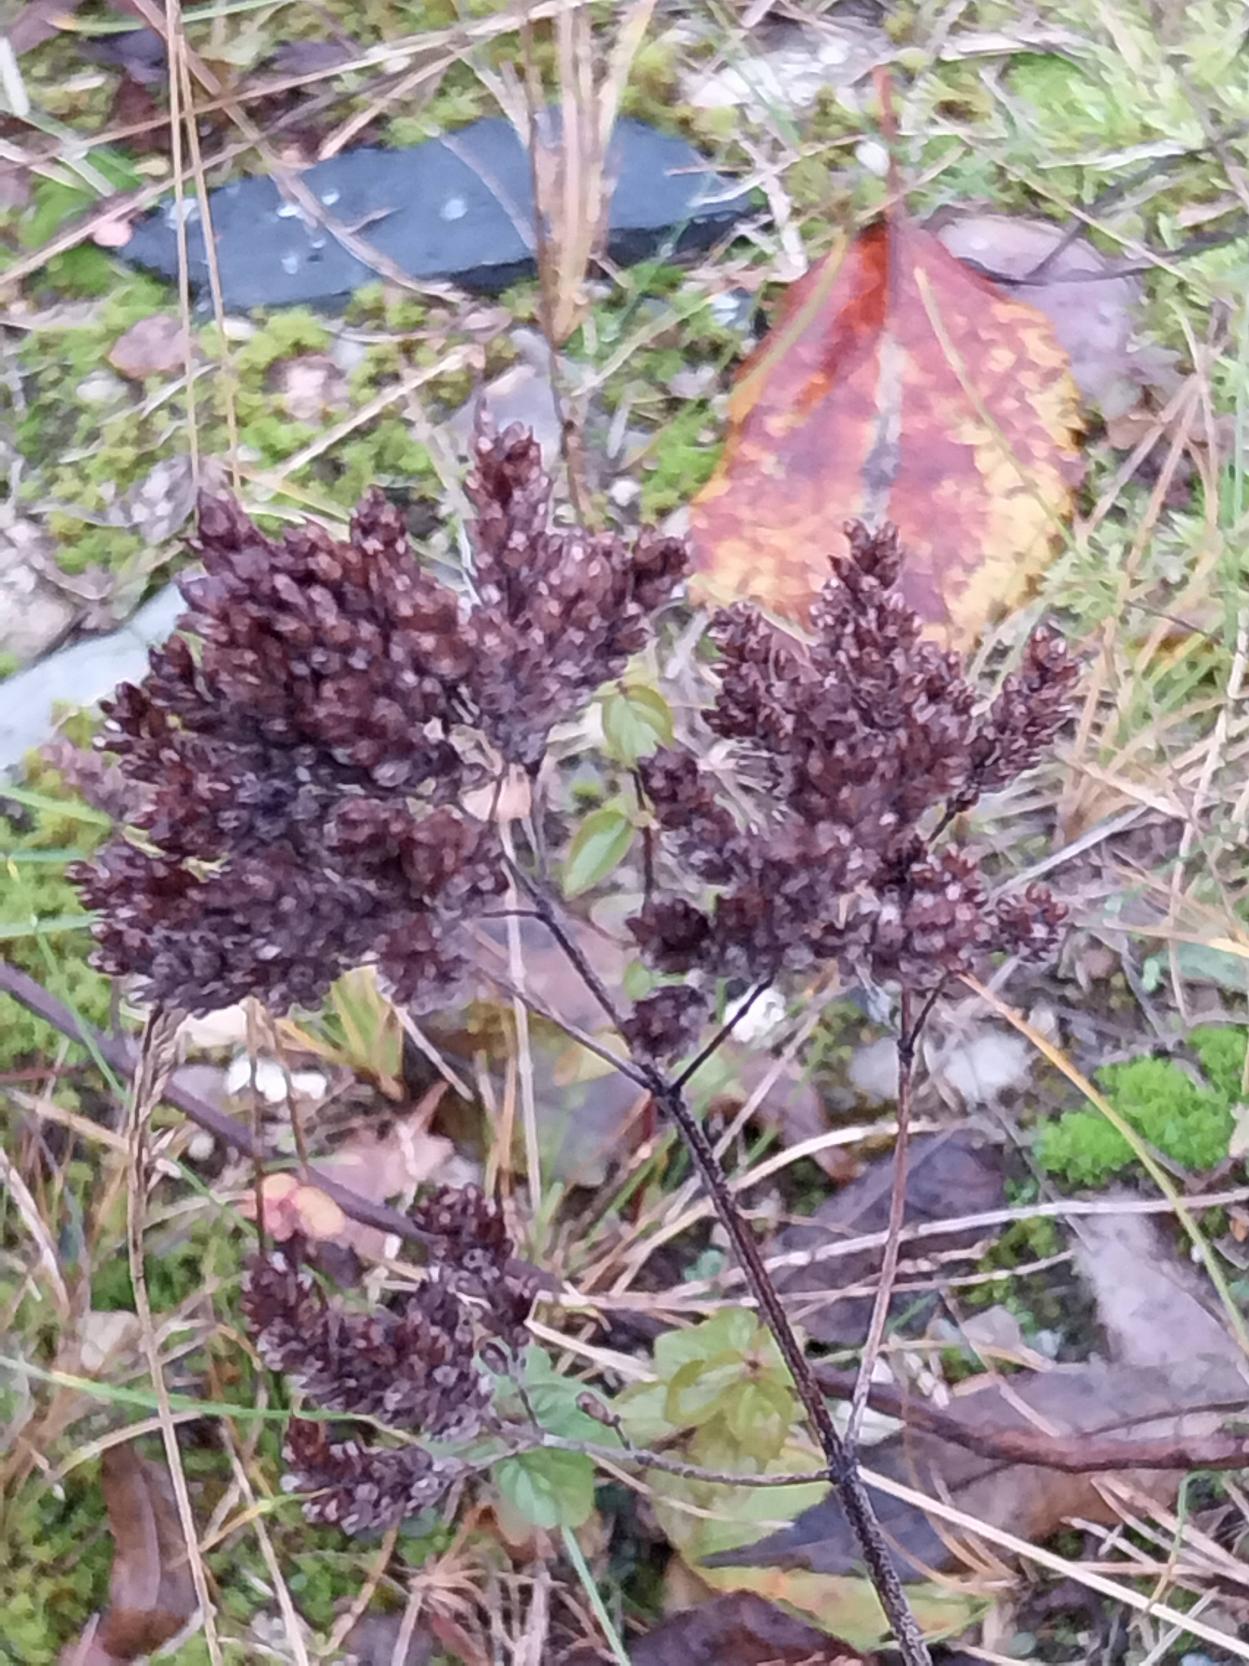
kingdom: Plantae
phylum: Tracheophyta
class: Magnoliopsida
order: Lamiales
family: Lamiaceae
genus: Origanum
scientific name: Origanum vulgare
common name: Merian
